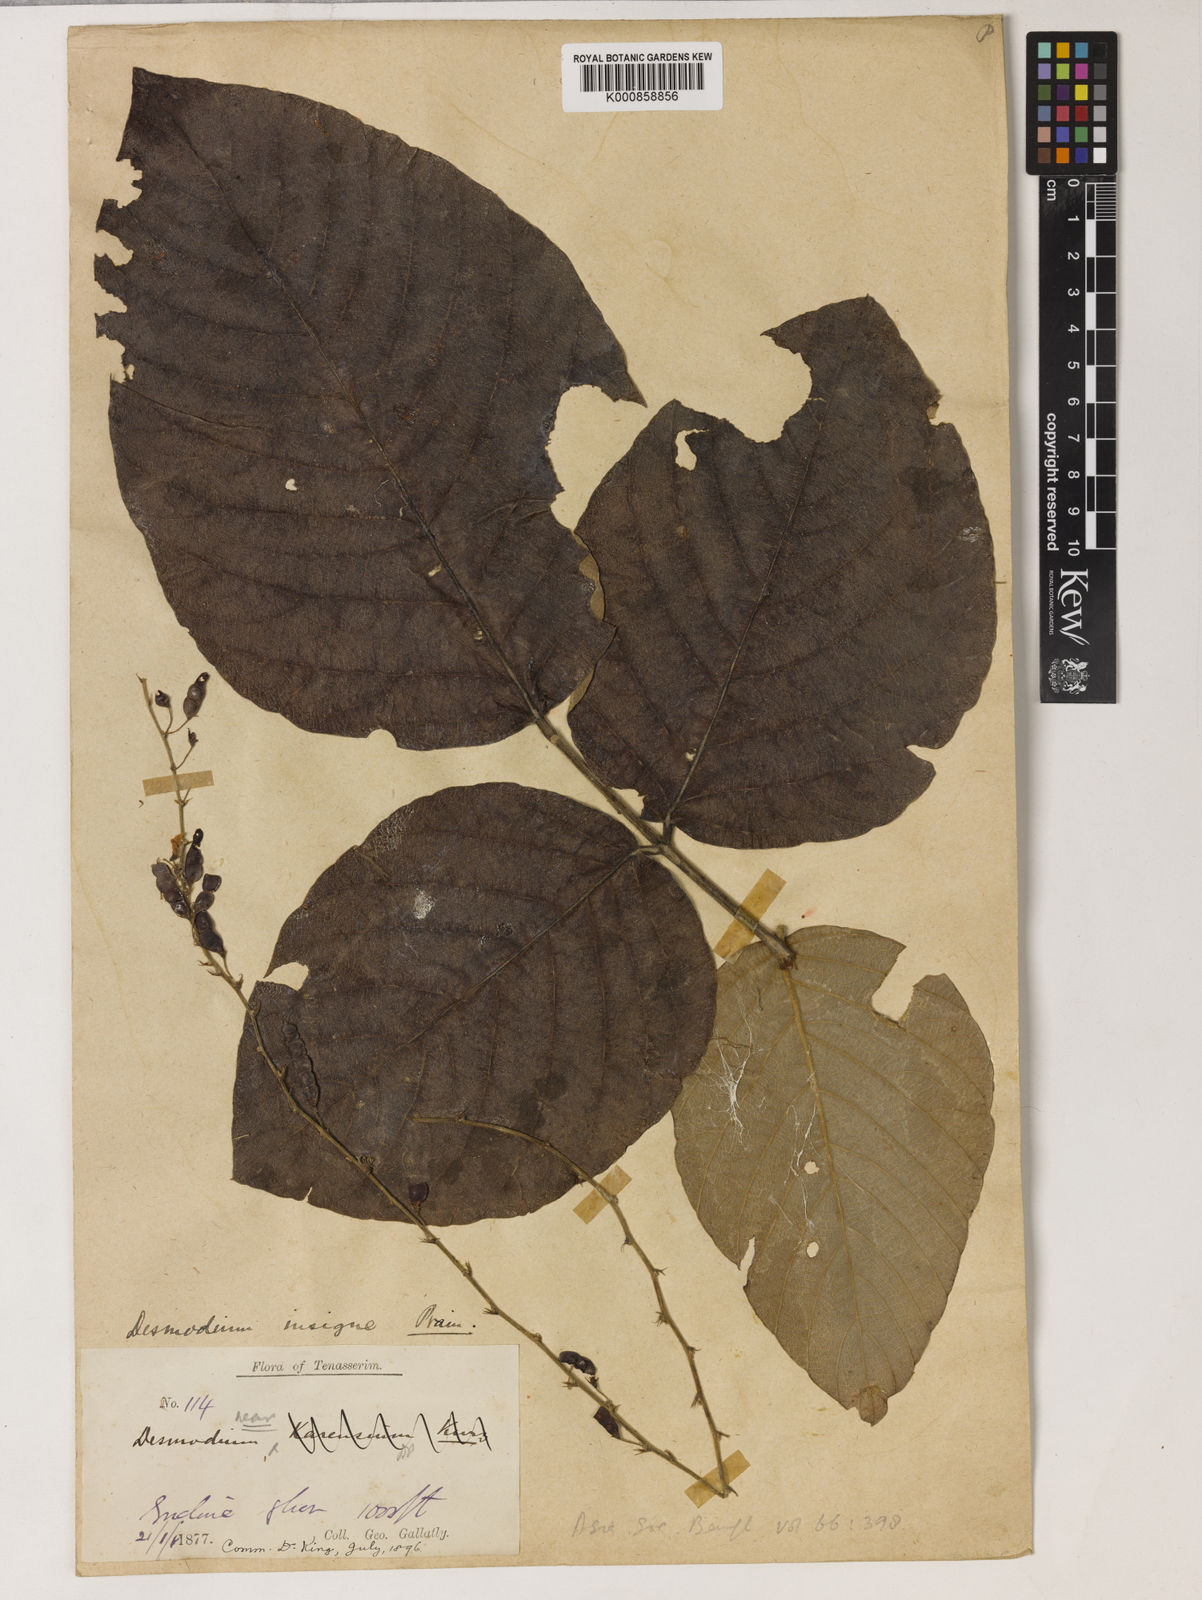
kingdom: Plantae
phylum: Tracheophyta
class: Magnoliopsida
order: Fabales
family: Fabaceae
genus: Phyllodium
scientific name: Phyllodium insigne
